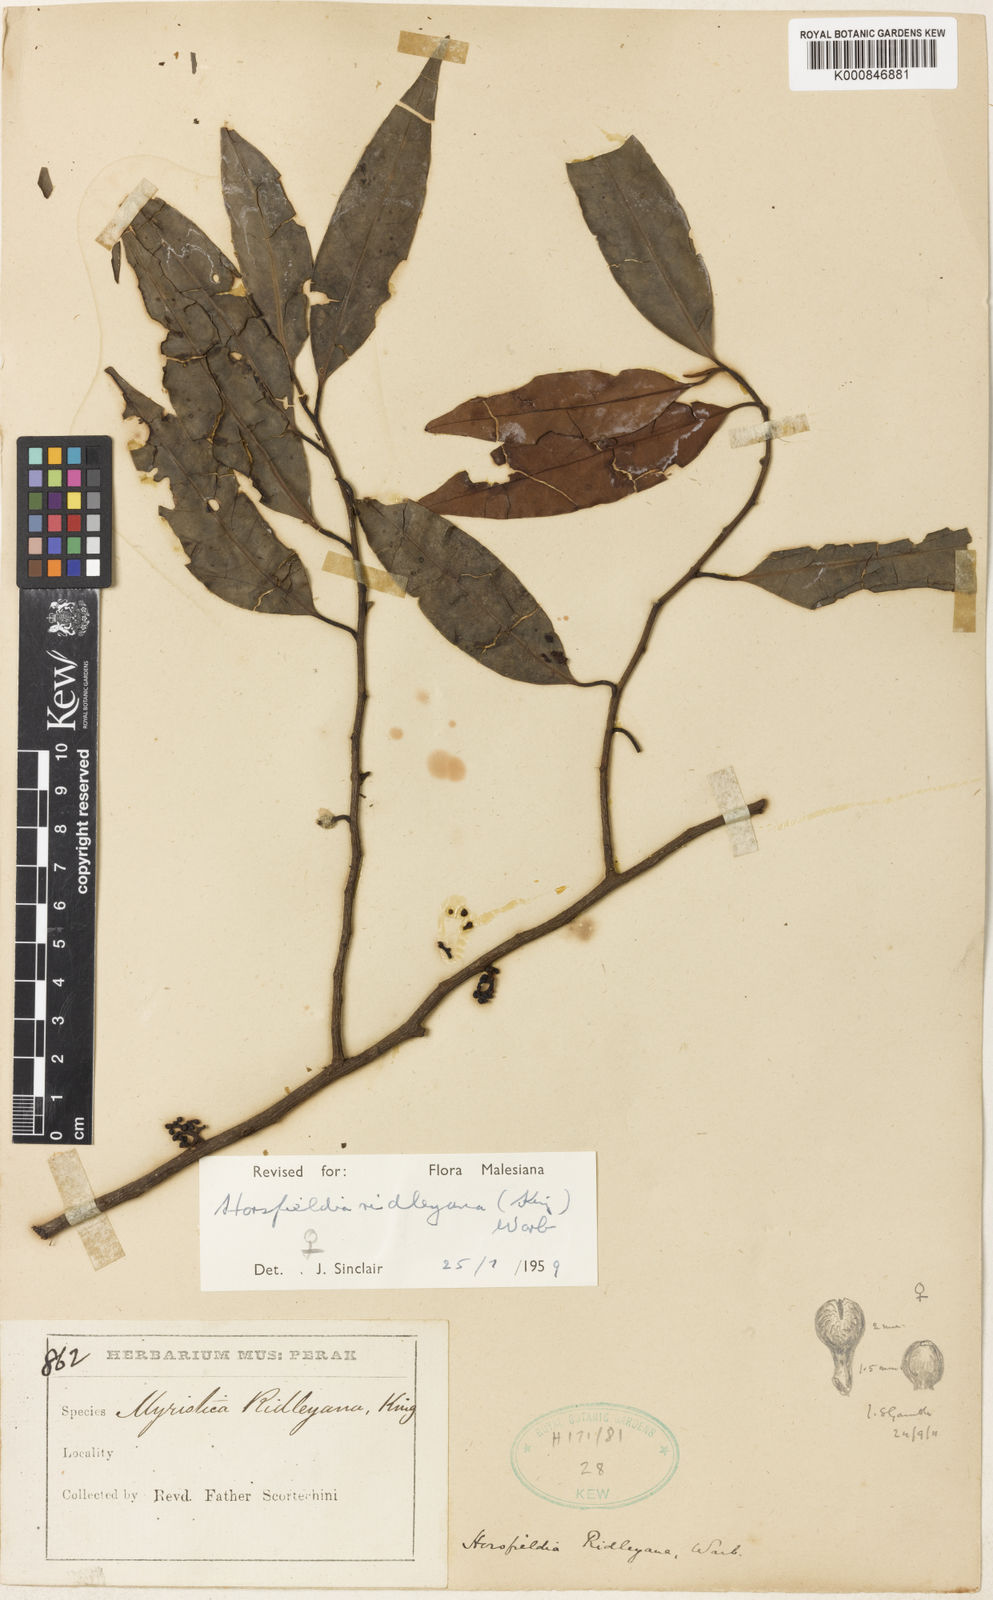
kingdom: Plantae
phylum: Tracheophyta
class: Magnoliopsida
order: Magnoliales
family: Myristicaceae
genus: Horsfieldia
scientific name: Horsfieldia ridleyana
